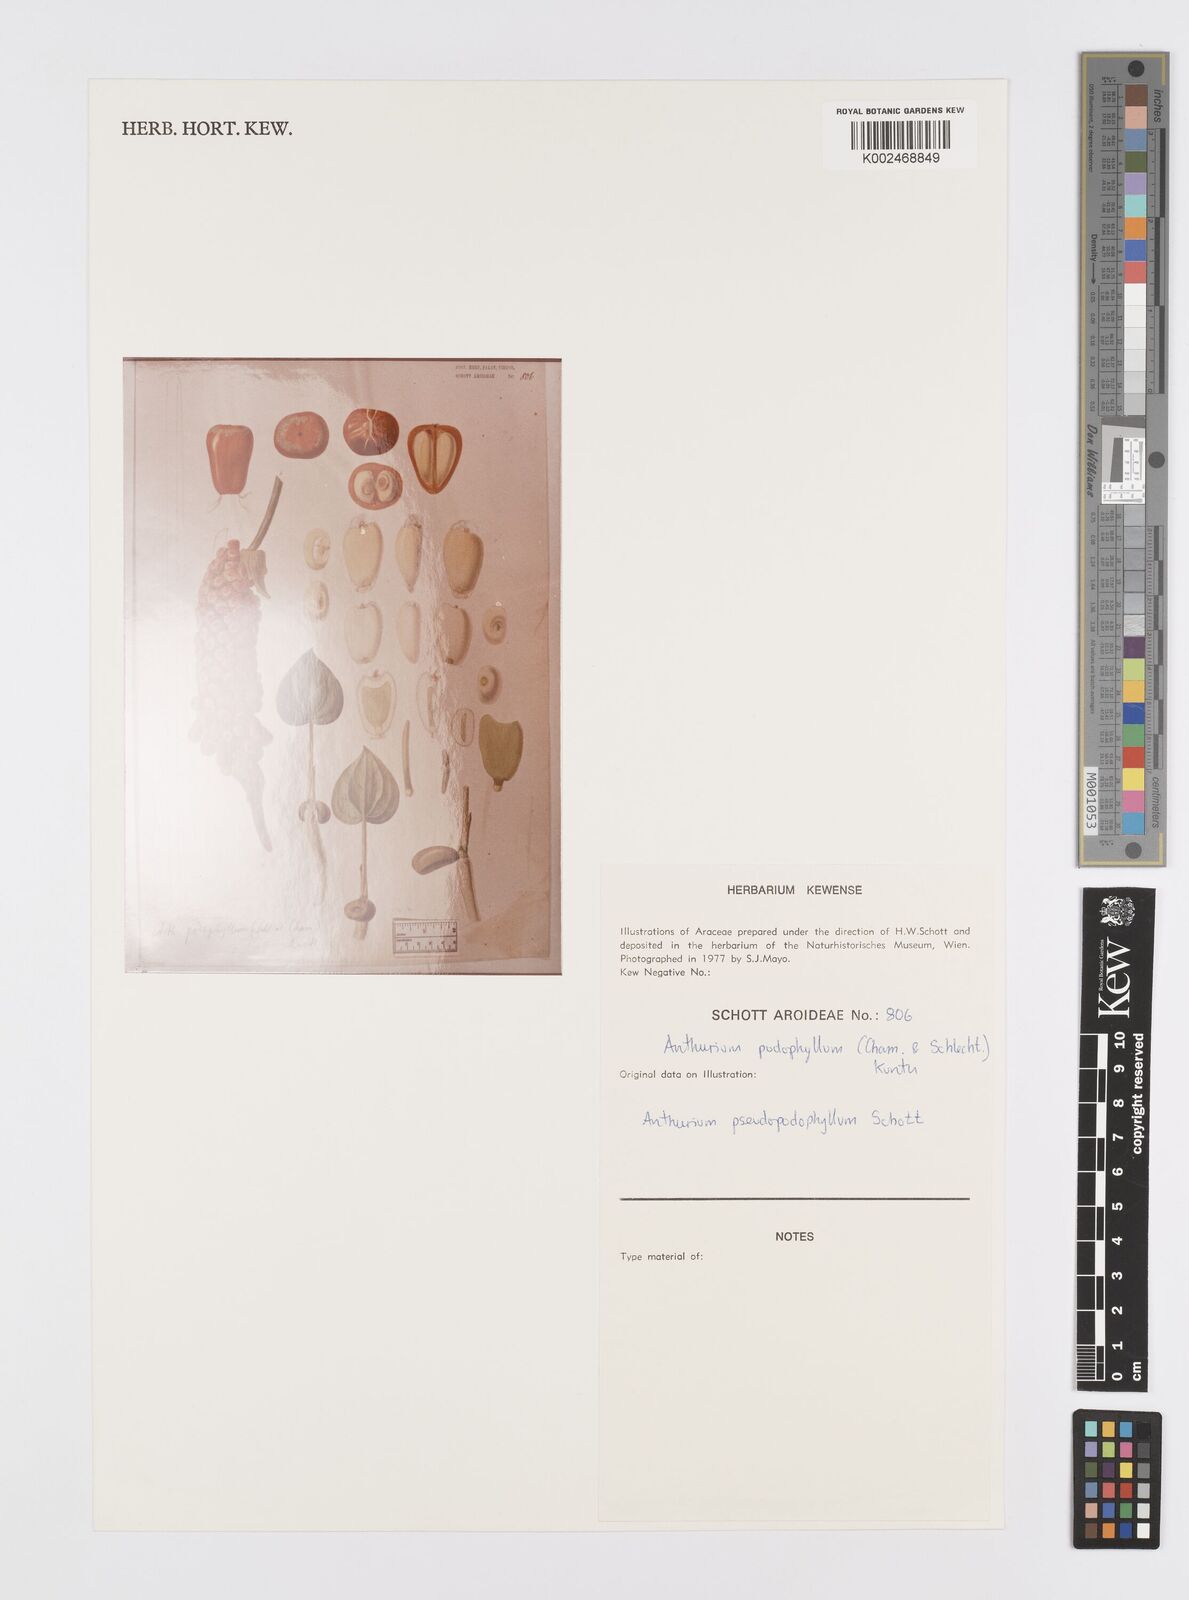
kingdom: Plantae
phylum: Tracheophyta
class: Liliopsida
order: Alismatales
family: Araceae
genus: Anthurium
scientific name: Anthurium podophyllum
